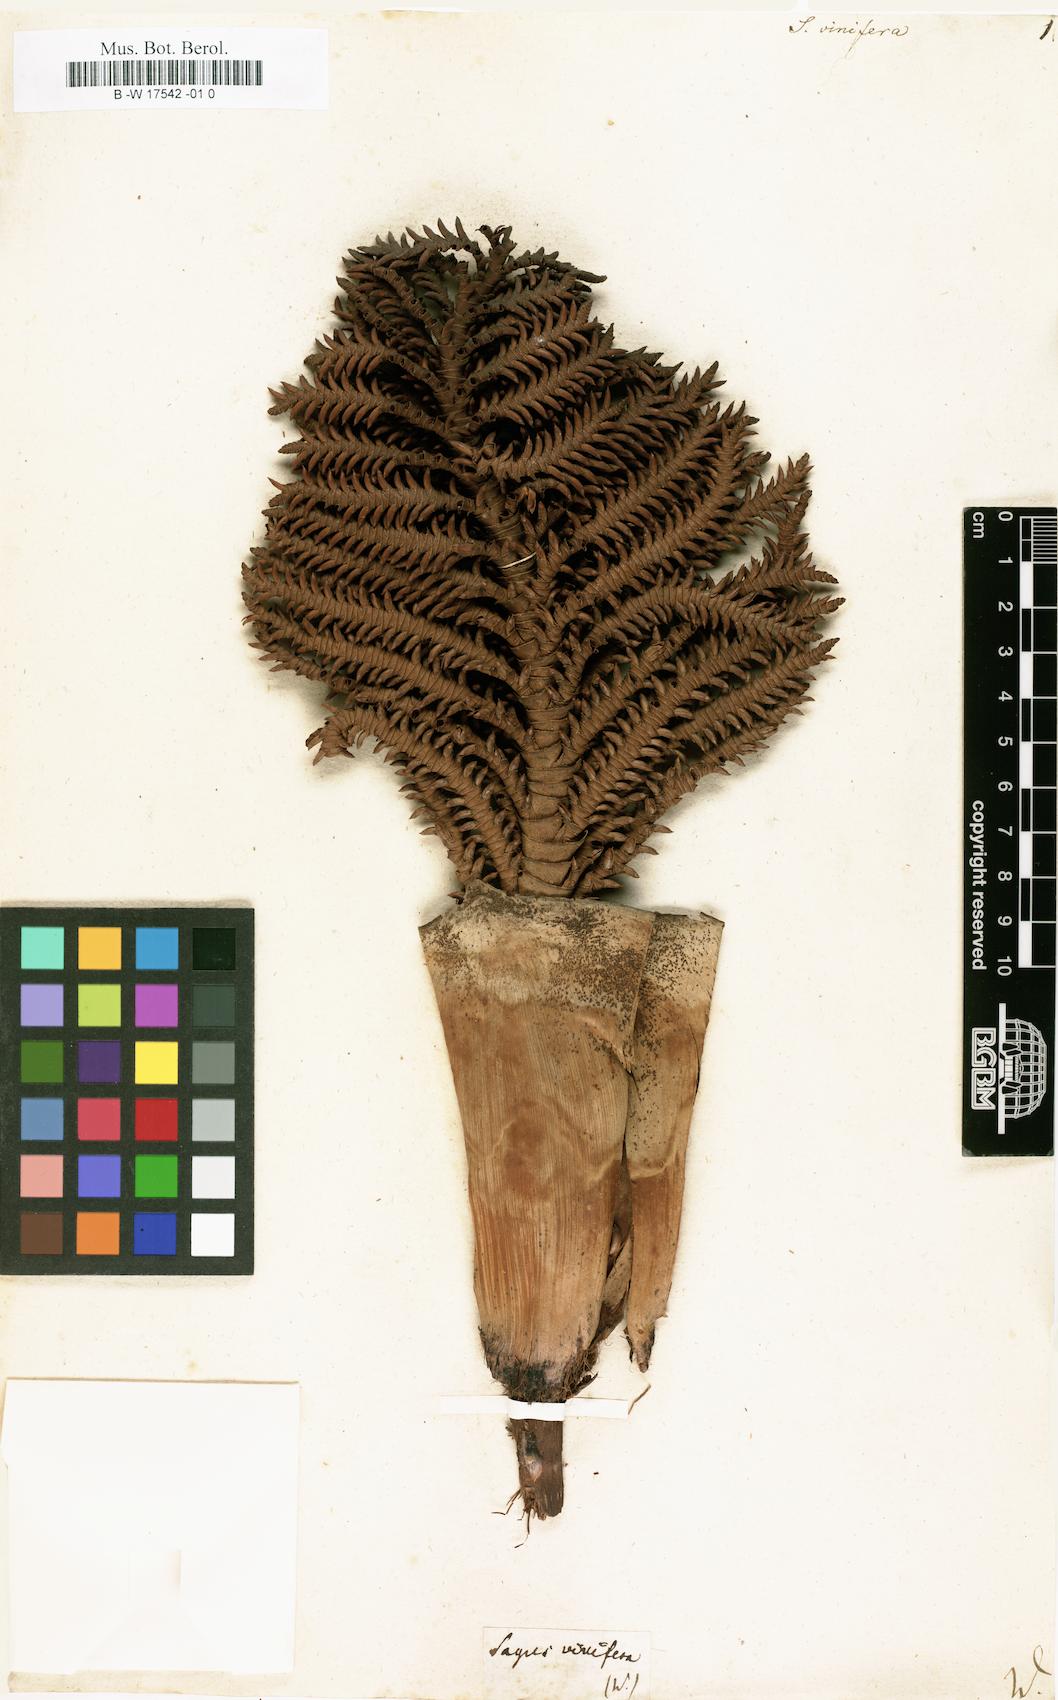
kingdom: Plantae
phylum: Tracheophyta
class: Liliopsida
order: Arecales
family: Arecaceae
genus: Raphia
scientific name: Raphia vinifera
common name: Raphia palm
